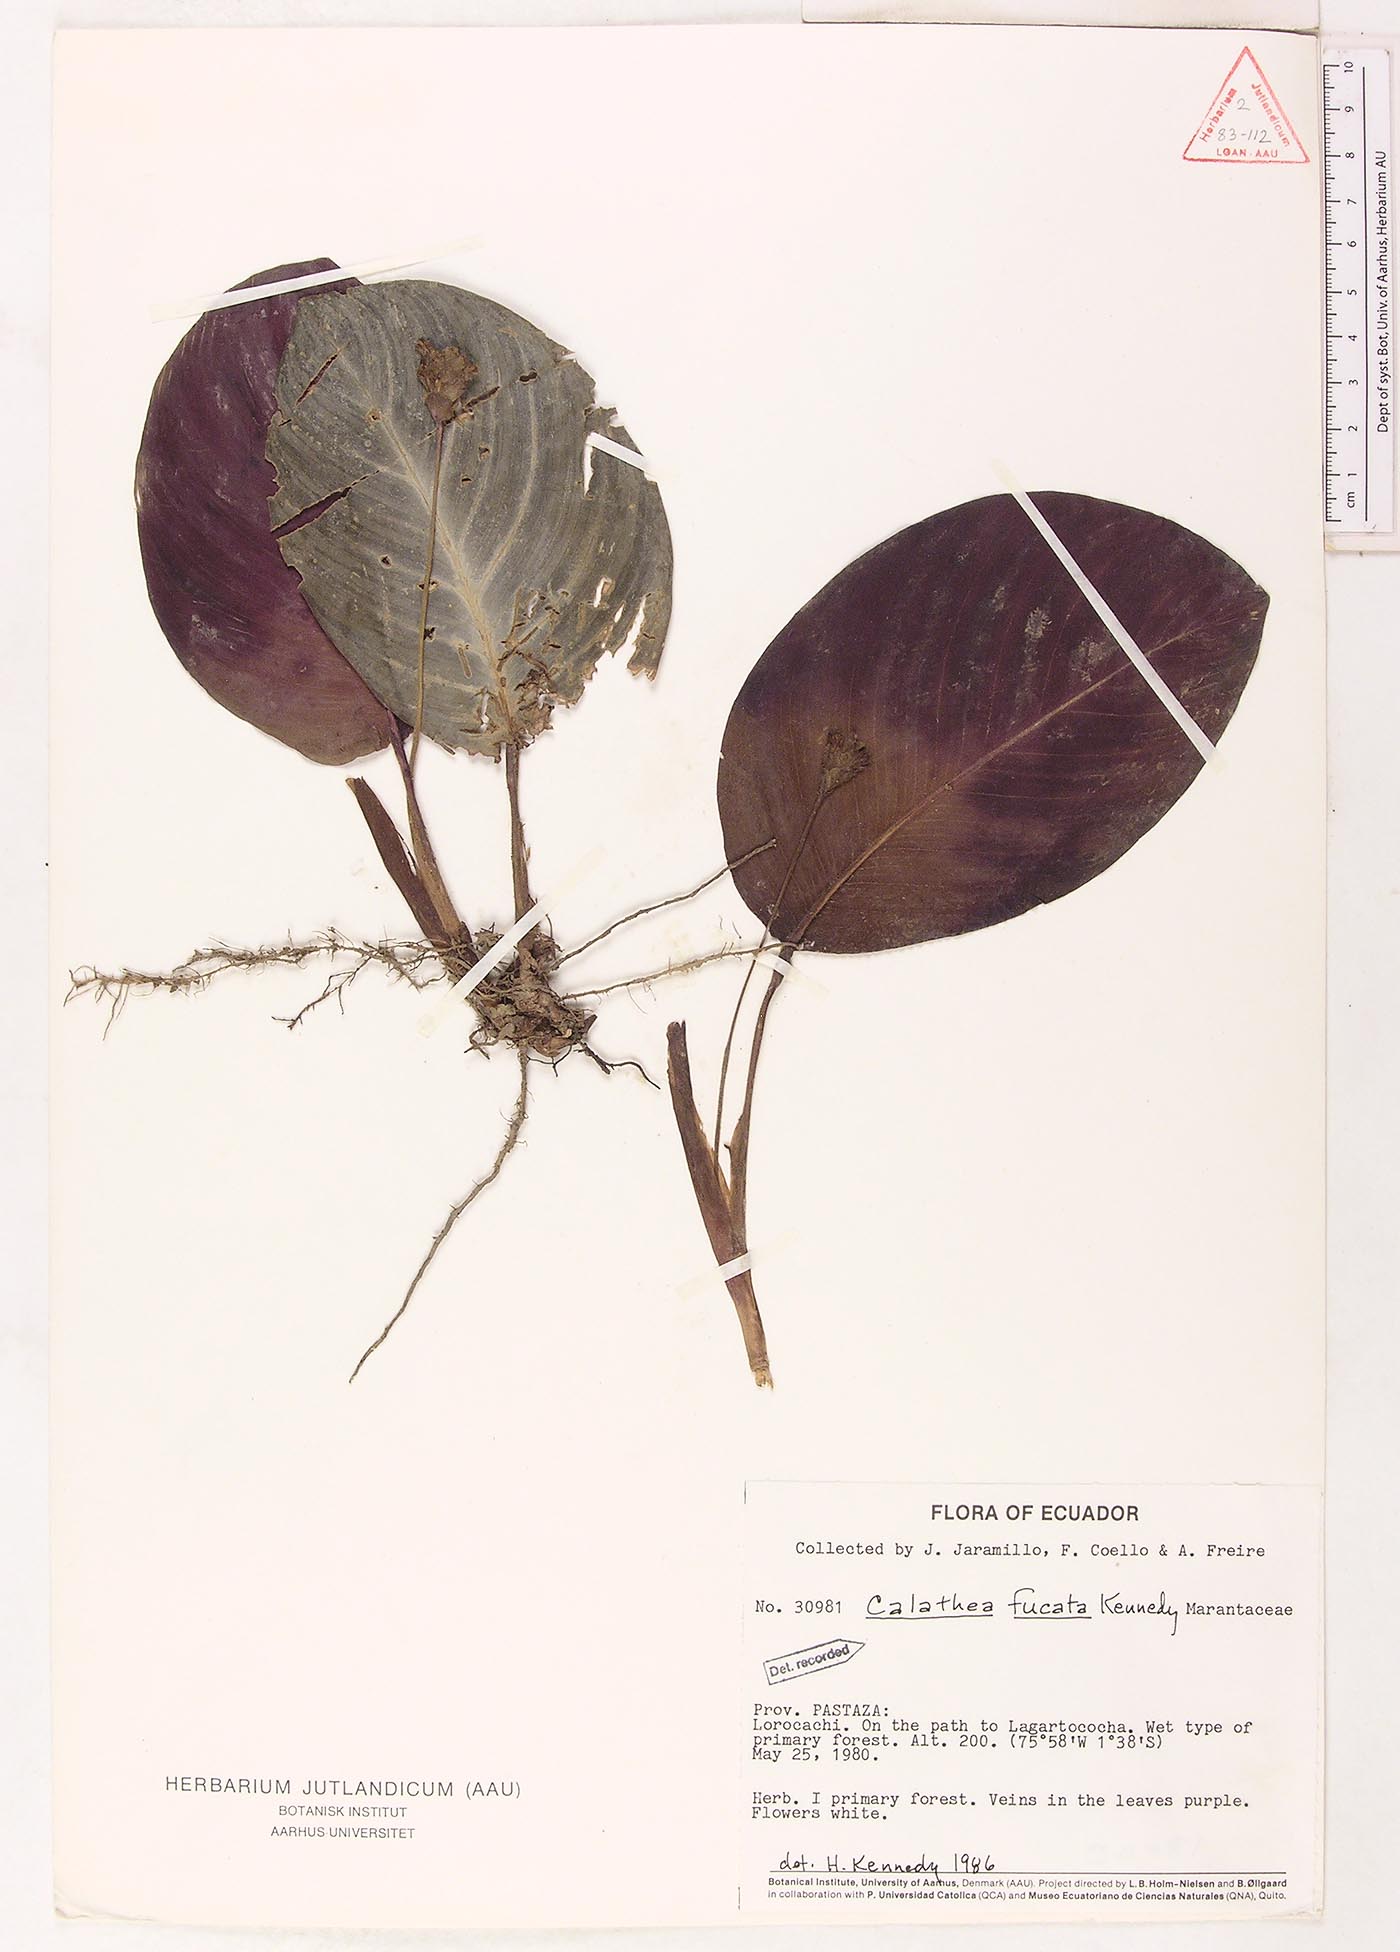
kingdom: Plantae
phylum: Tracheophyta
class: Liliopsida
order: Zingiberales
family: Marantaceae
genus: Goeppertia
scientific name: Goeppertia fucata
